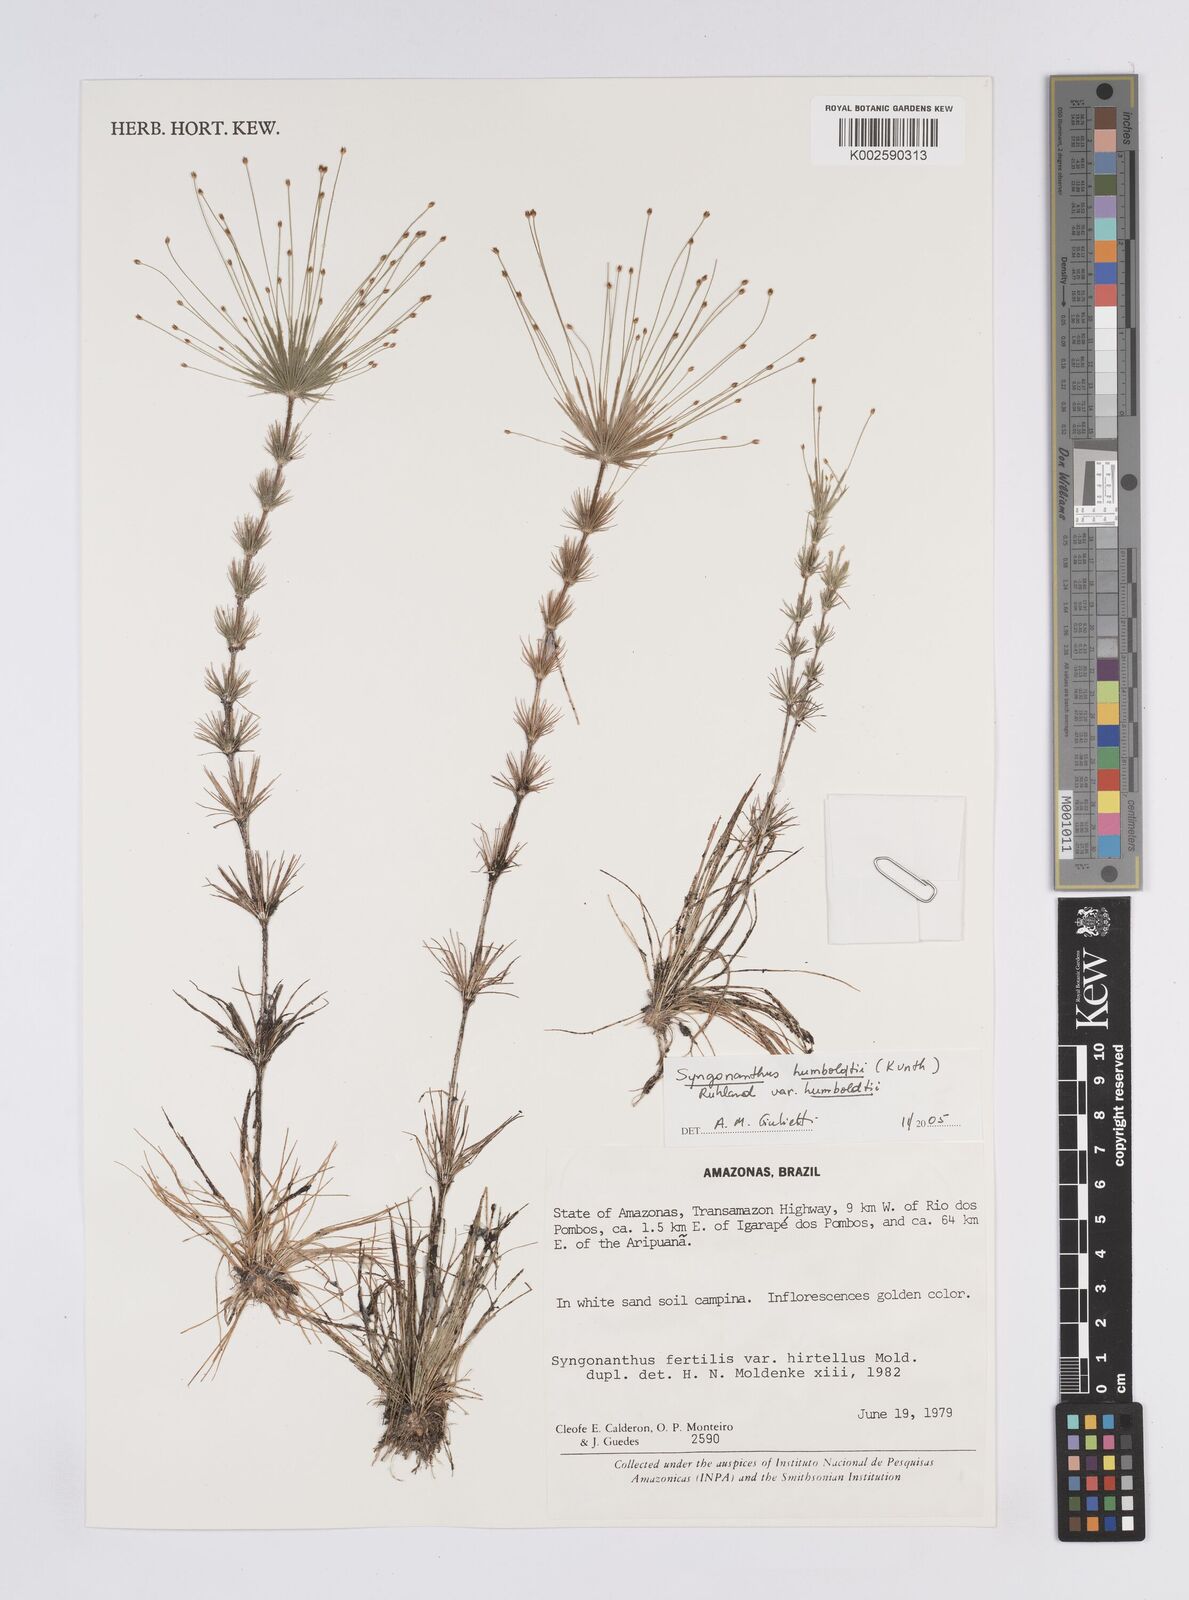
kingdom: Plantae
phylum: Tracheophyta
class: Liliopsida
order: Poales
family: Eriocaulaceae
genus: Syngonanthus
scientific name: Syngonanthus humboldtii
